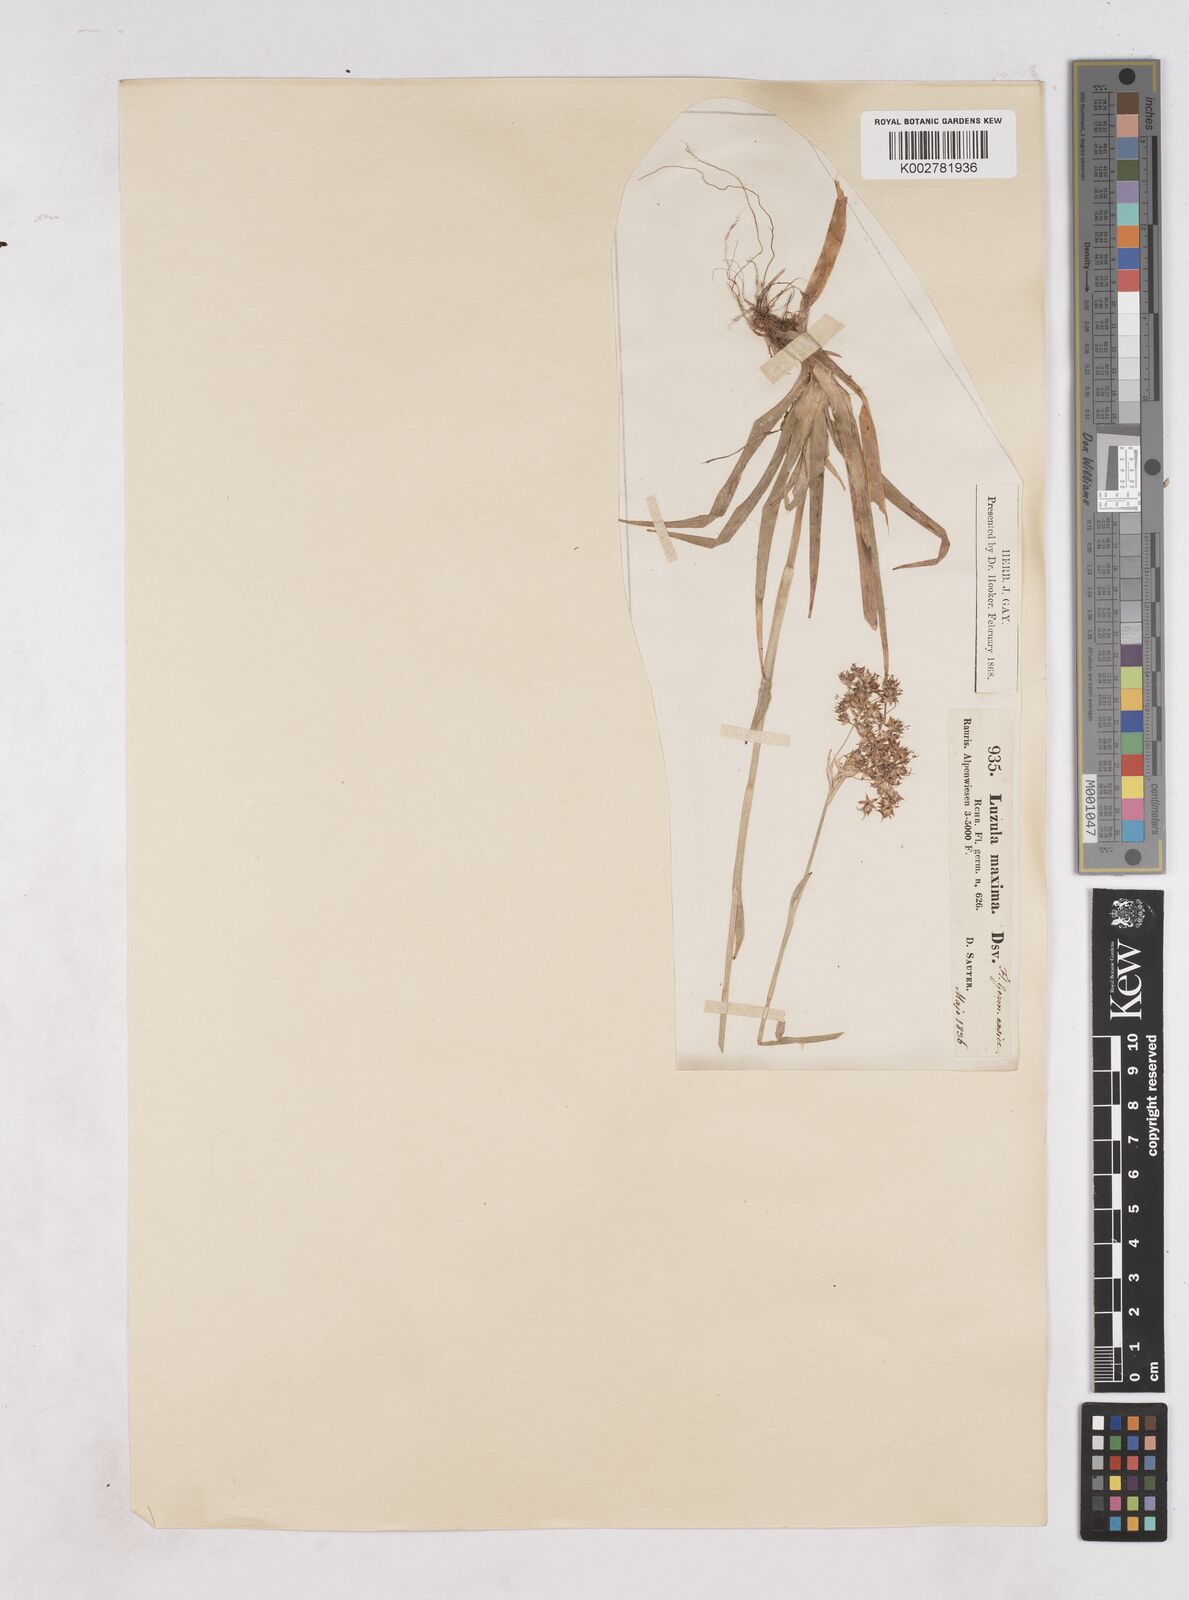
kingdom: Plantae
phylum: Tracheophyta
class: Liliopsida
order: Poales
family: Juncaceae
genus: Luzula
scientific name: Luzula sylvatica
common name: Great wood-rush
